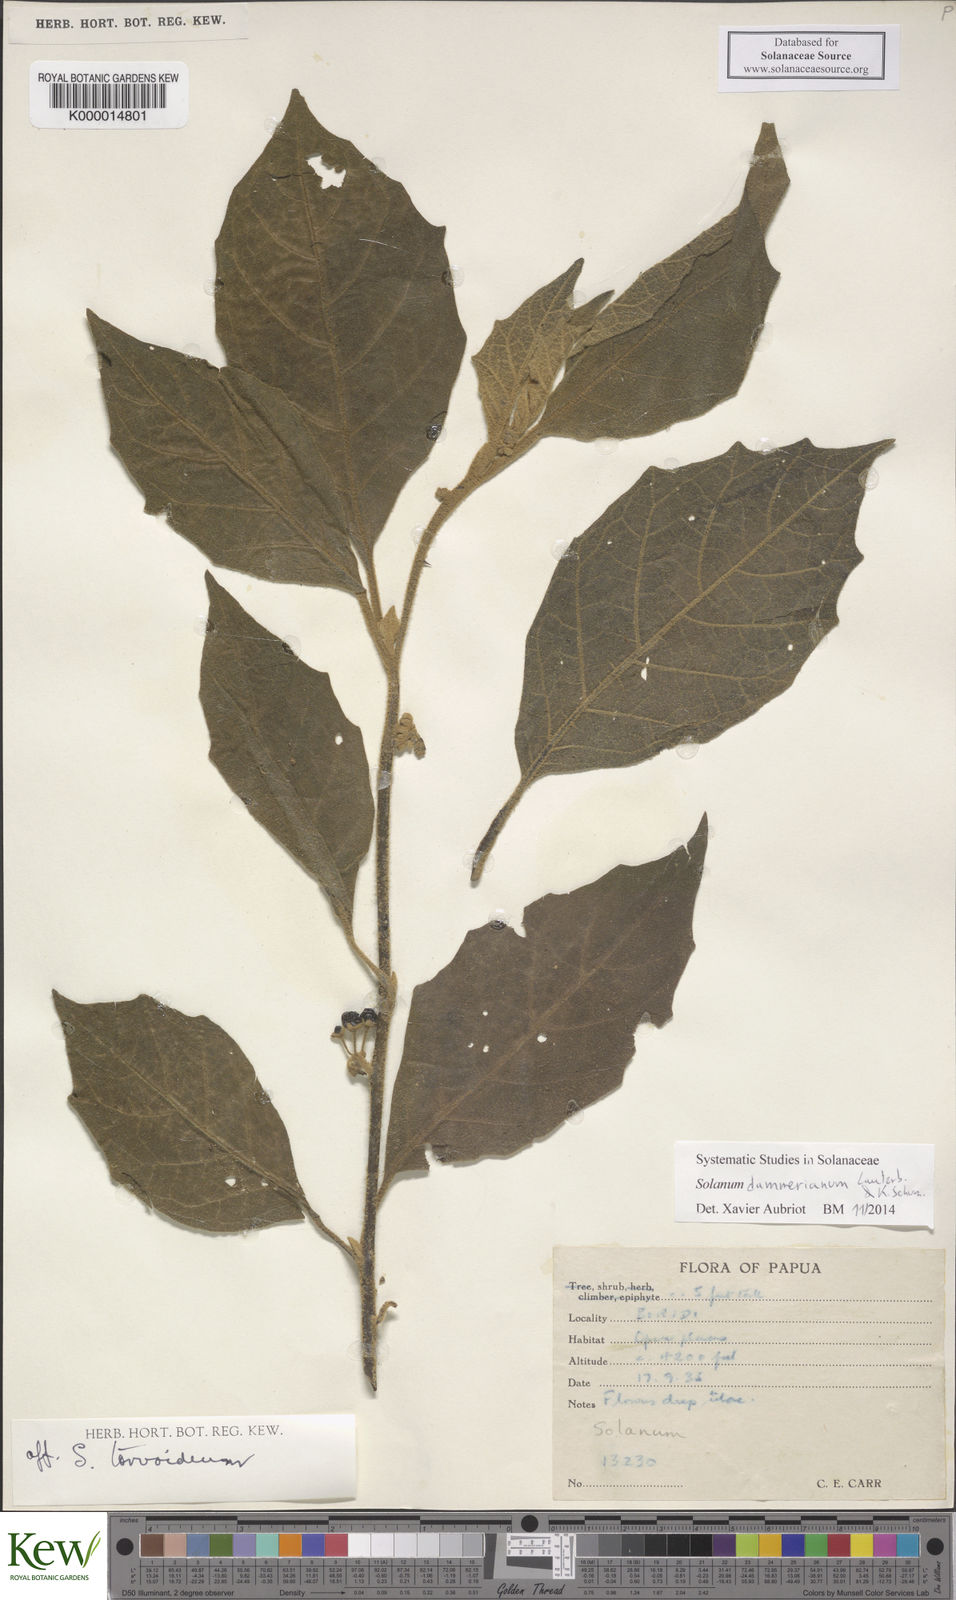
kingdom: Plantae
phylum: Tracheophyta
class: Magnoliopsida
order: Solanales
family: Solanaceae
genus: Solanum
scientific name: Solanum dammerianum
